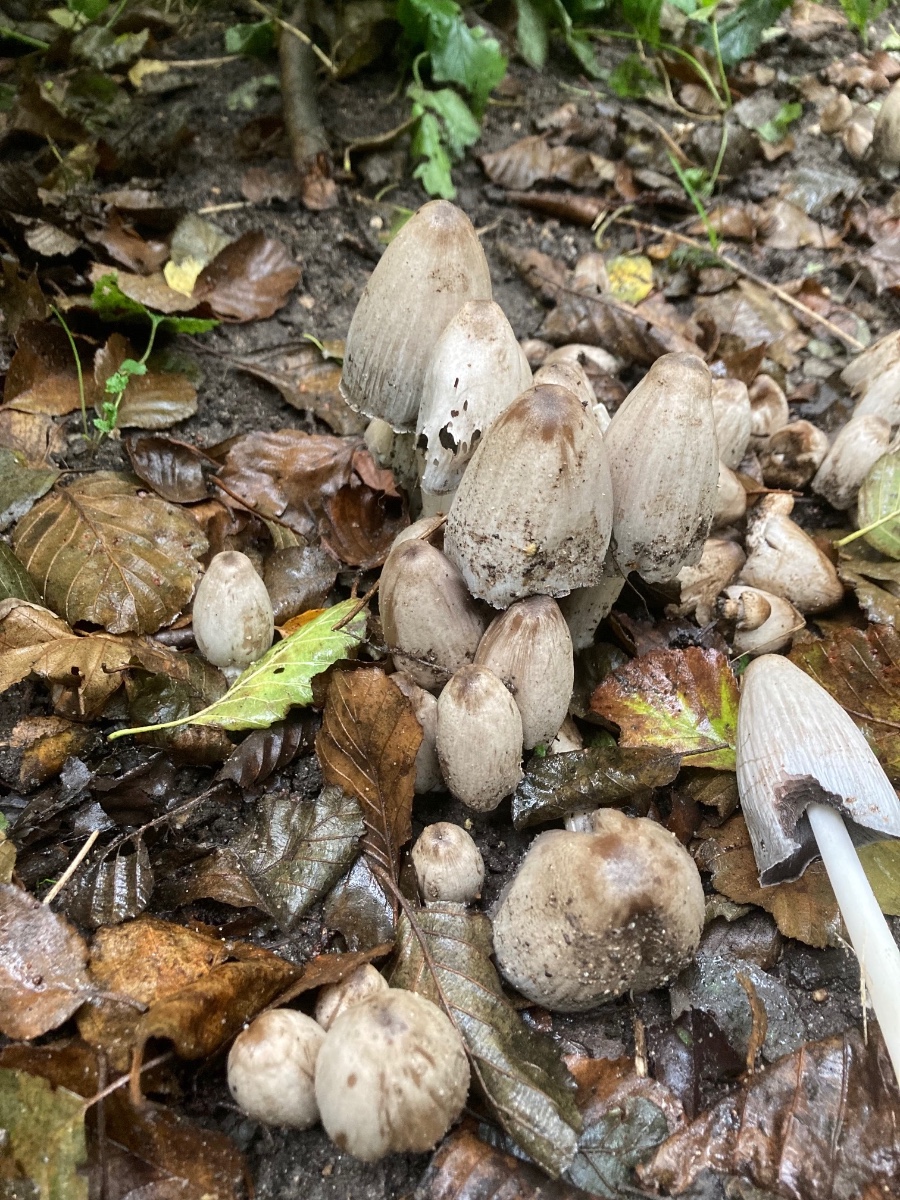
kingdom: Fungi
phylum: Basidiomycota
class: Agaricomycetes
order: Agaricales
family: Psathyrellaceae
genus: Coprinopsis
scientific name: Coprinopsis atramentaria
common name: almindelig blækhat
